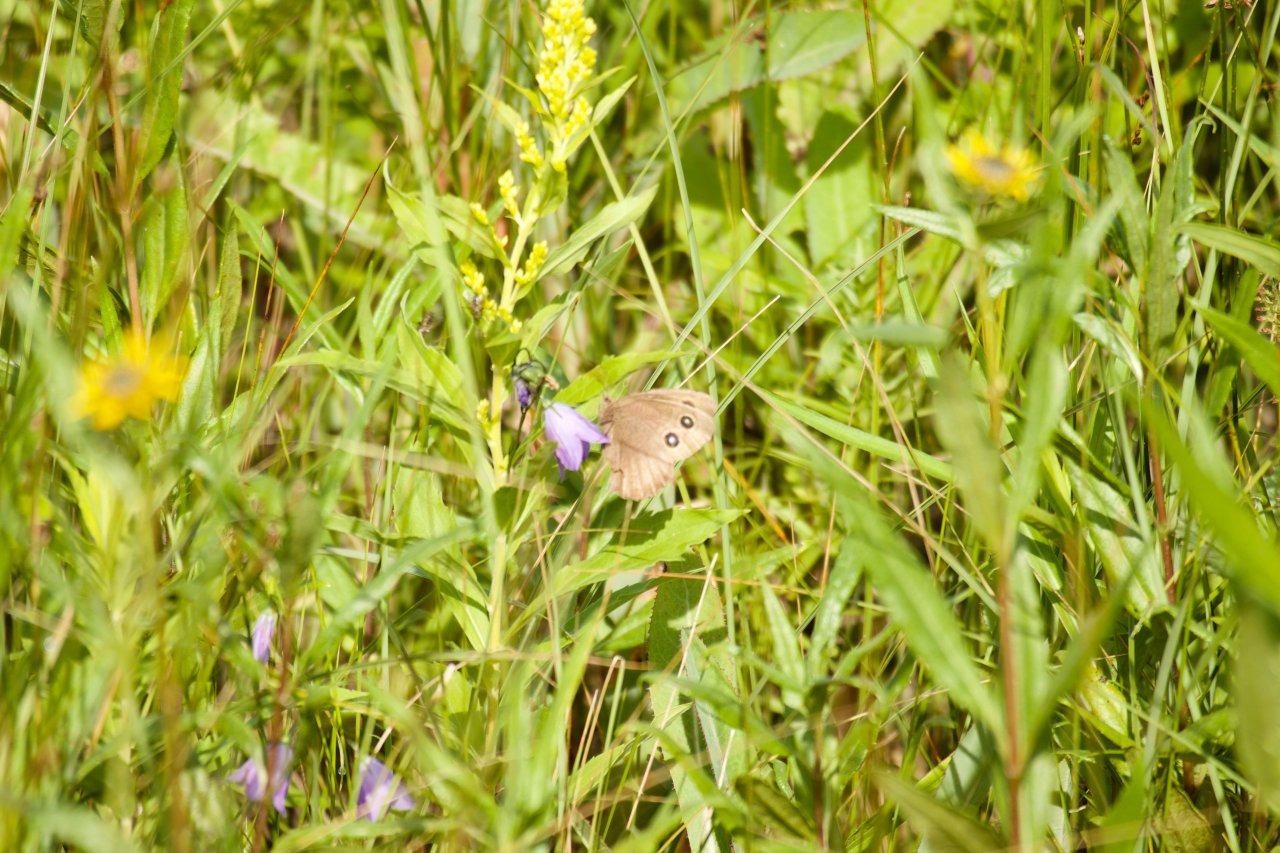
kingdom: Animalia
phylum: Arthropoda
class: Insecta
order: Lepidoptera
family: Nymphalidae
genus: Cercyonis
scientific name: Cercyonis pegala
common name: Common Wood-Nymph
